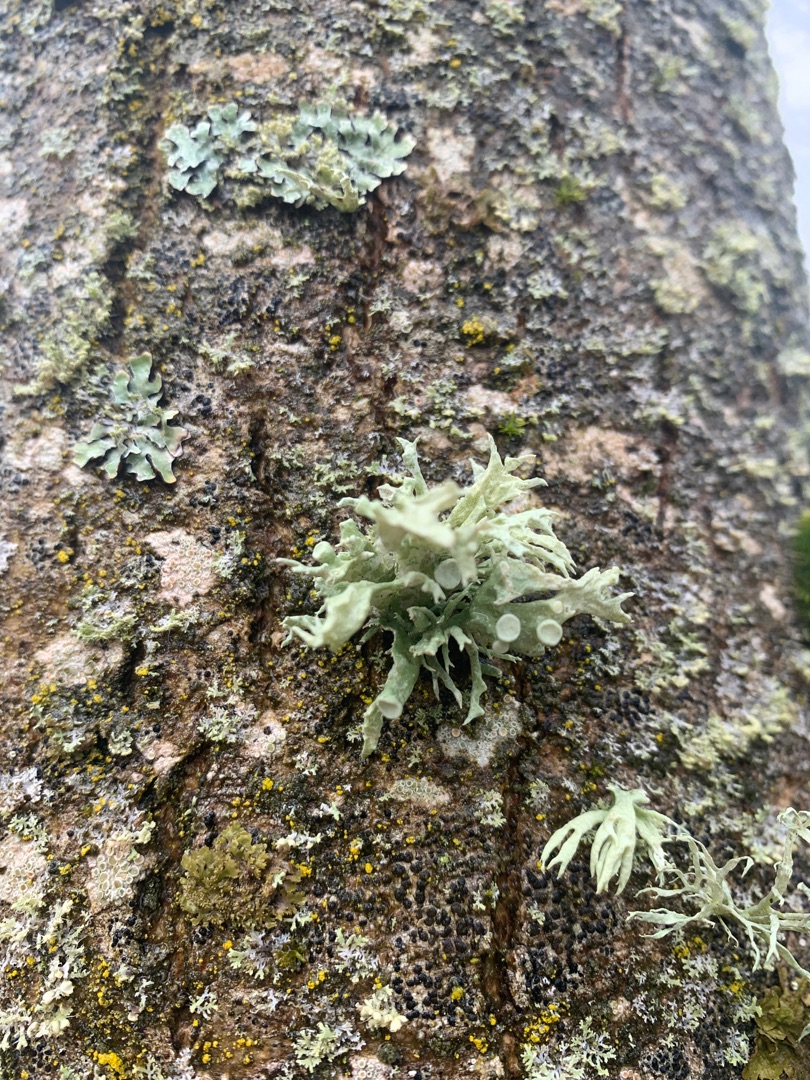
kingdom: Fungi
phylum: Ascomycota
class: Lecanoromycetes
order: Lecanorales
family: Ramalinaceae
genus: Ramalina
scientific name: Ramalina fastigiata
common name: Tue-grenlav
